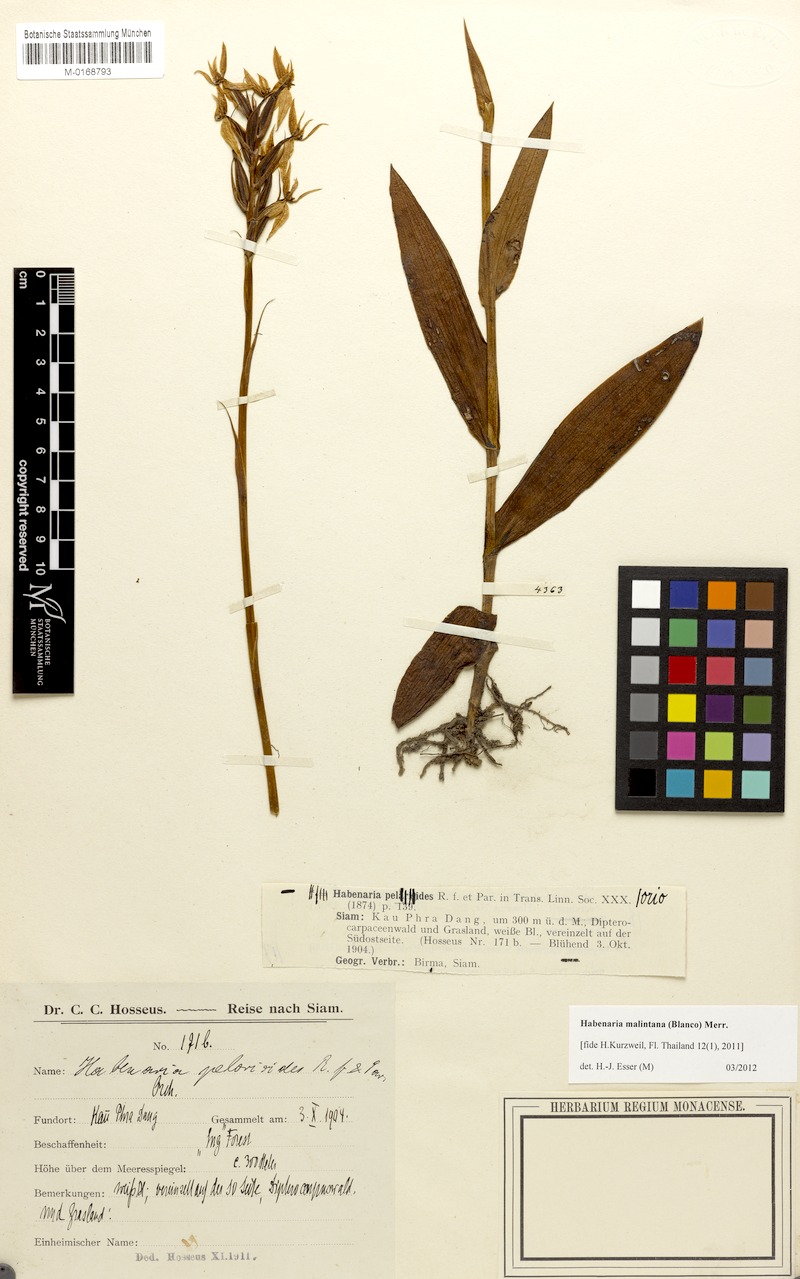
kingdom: Plantae
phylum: Tracheophyta
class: Liliopsida
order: Asparagales
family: Orchidaceae
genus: Habenaria
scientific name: Habenaria malintana
